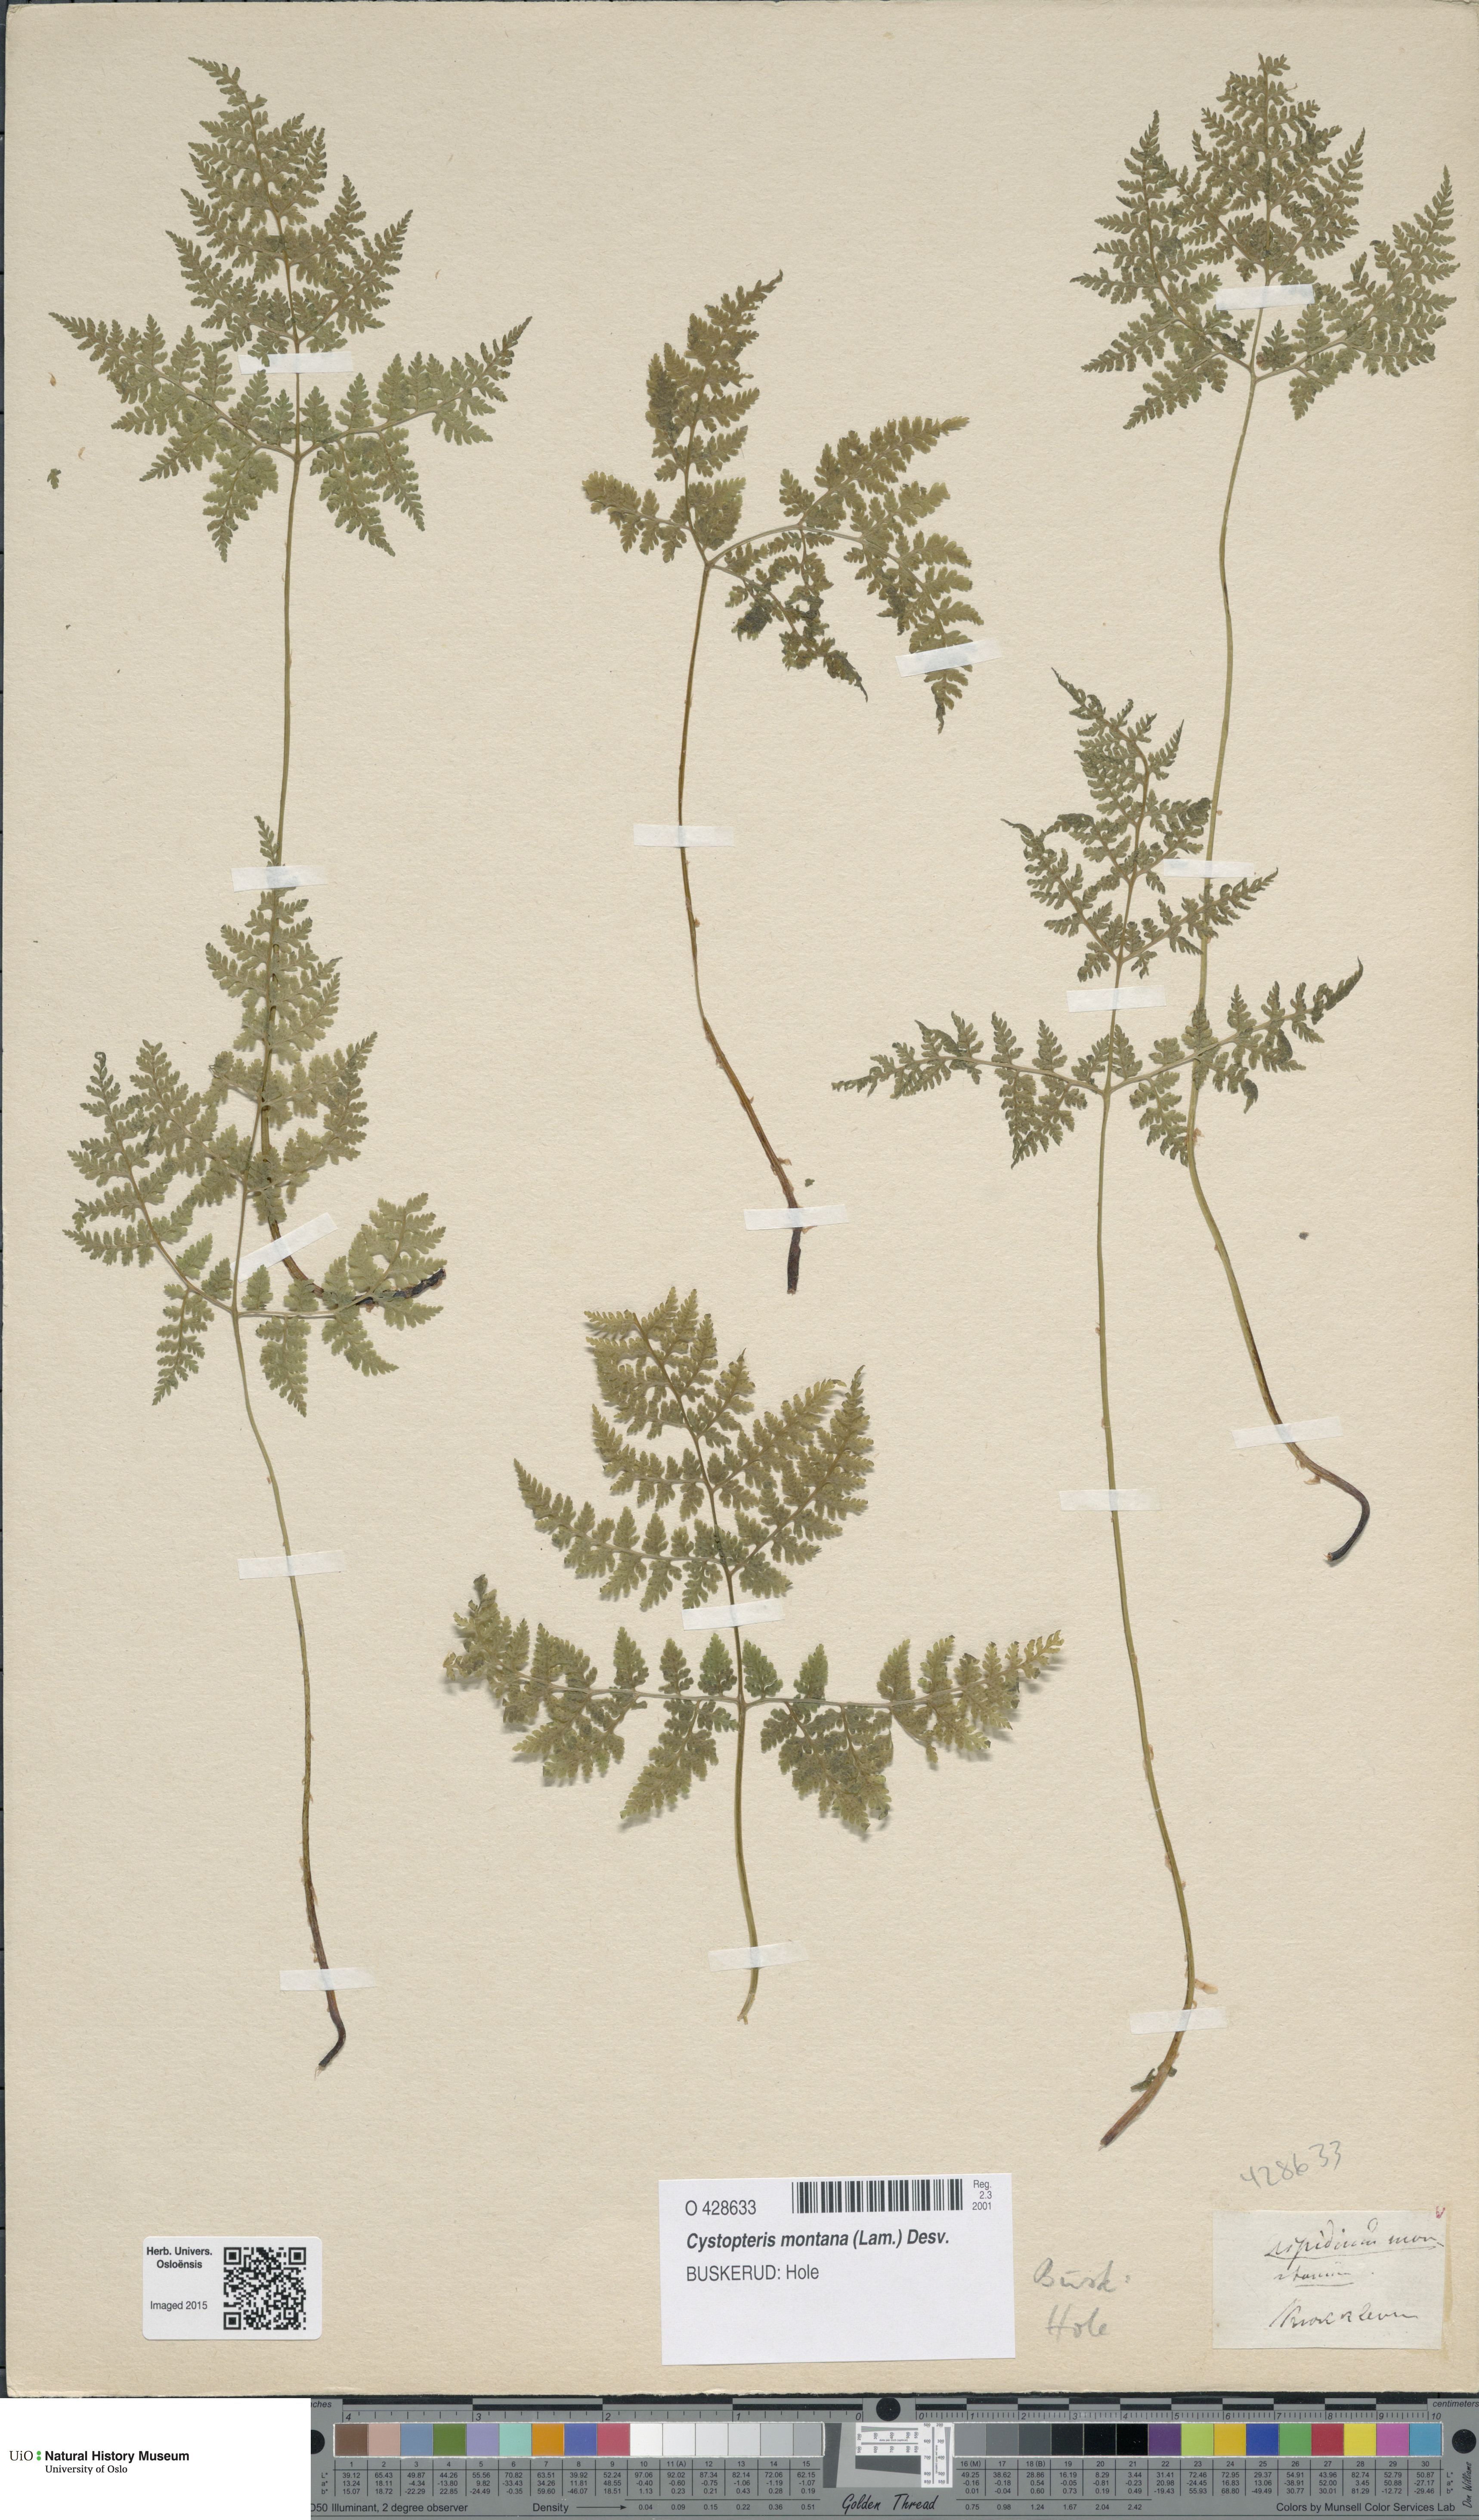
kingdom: Plantae
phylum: Tracheophyta
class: Polypodiopsida
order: Polypodiales
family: Cystopteridaceae
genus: Cystopteris
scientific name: Cystopteris montana
